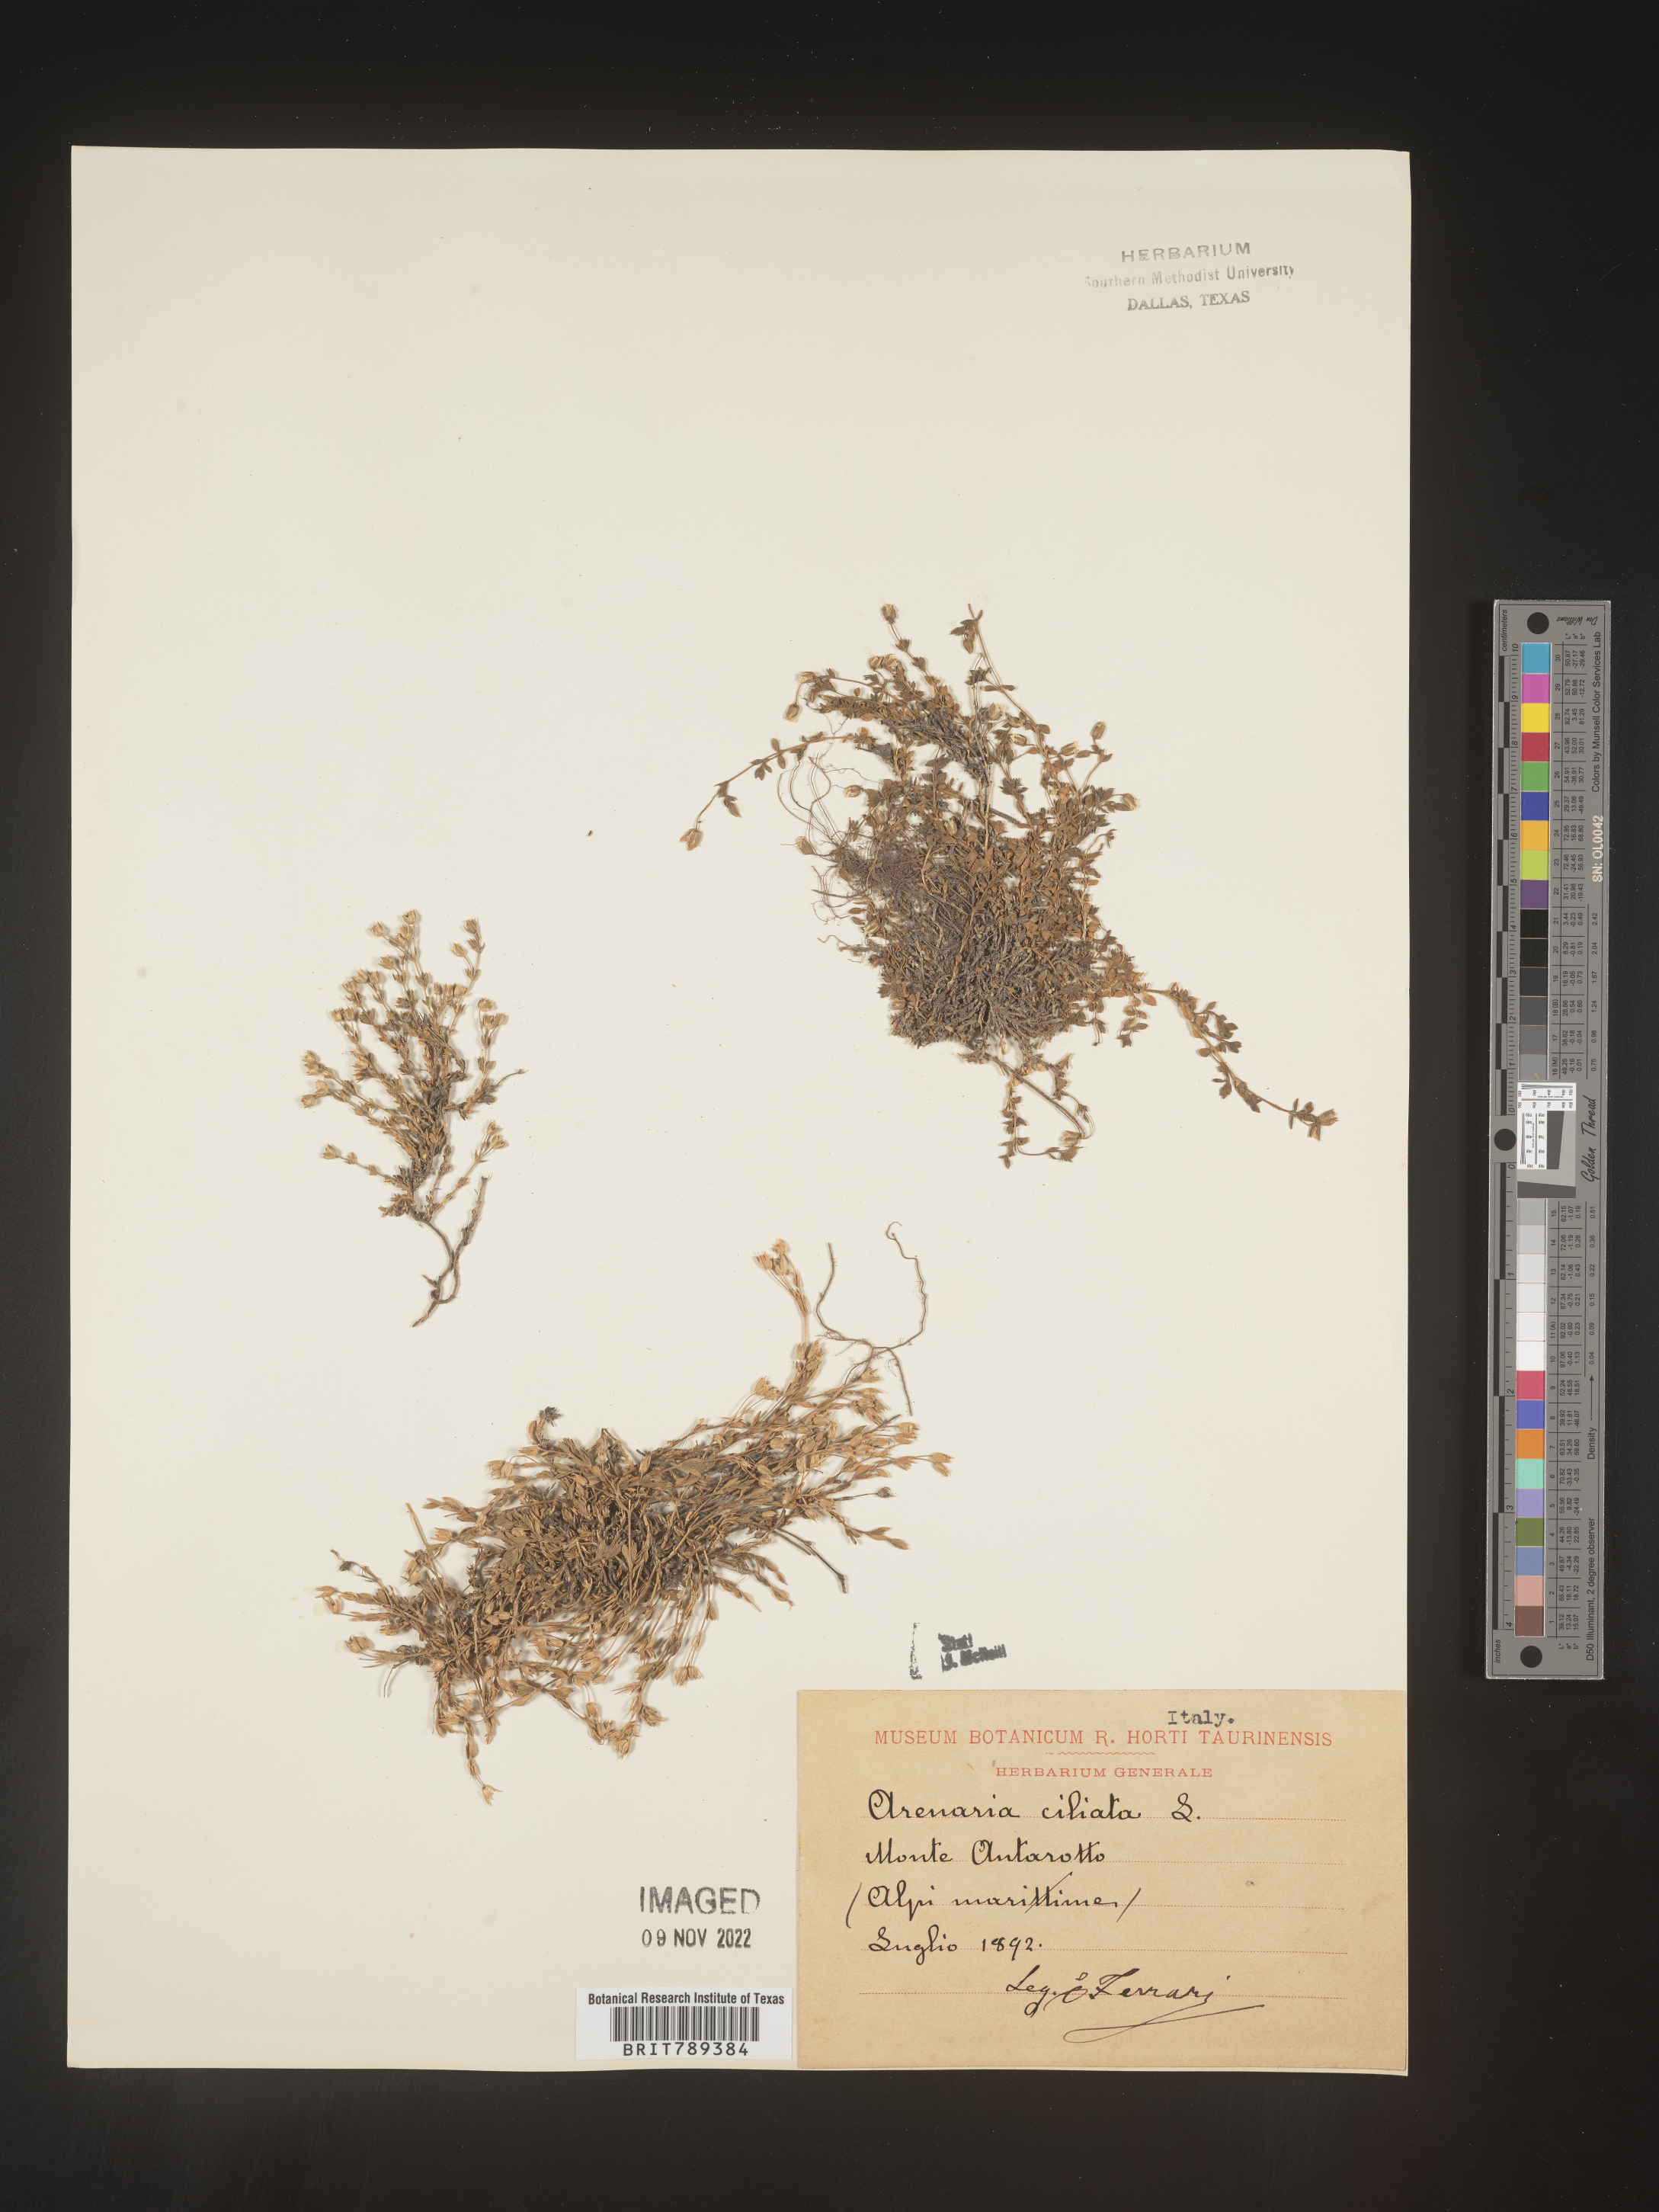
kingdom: Plantae
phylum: Tracheophyta
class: Magnoliopsida
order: Caryophyllales
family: Caryophyllaceae
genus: Arenaria
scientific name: Arenaria
